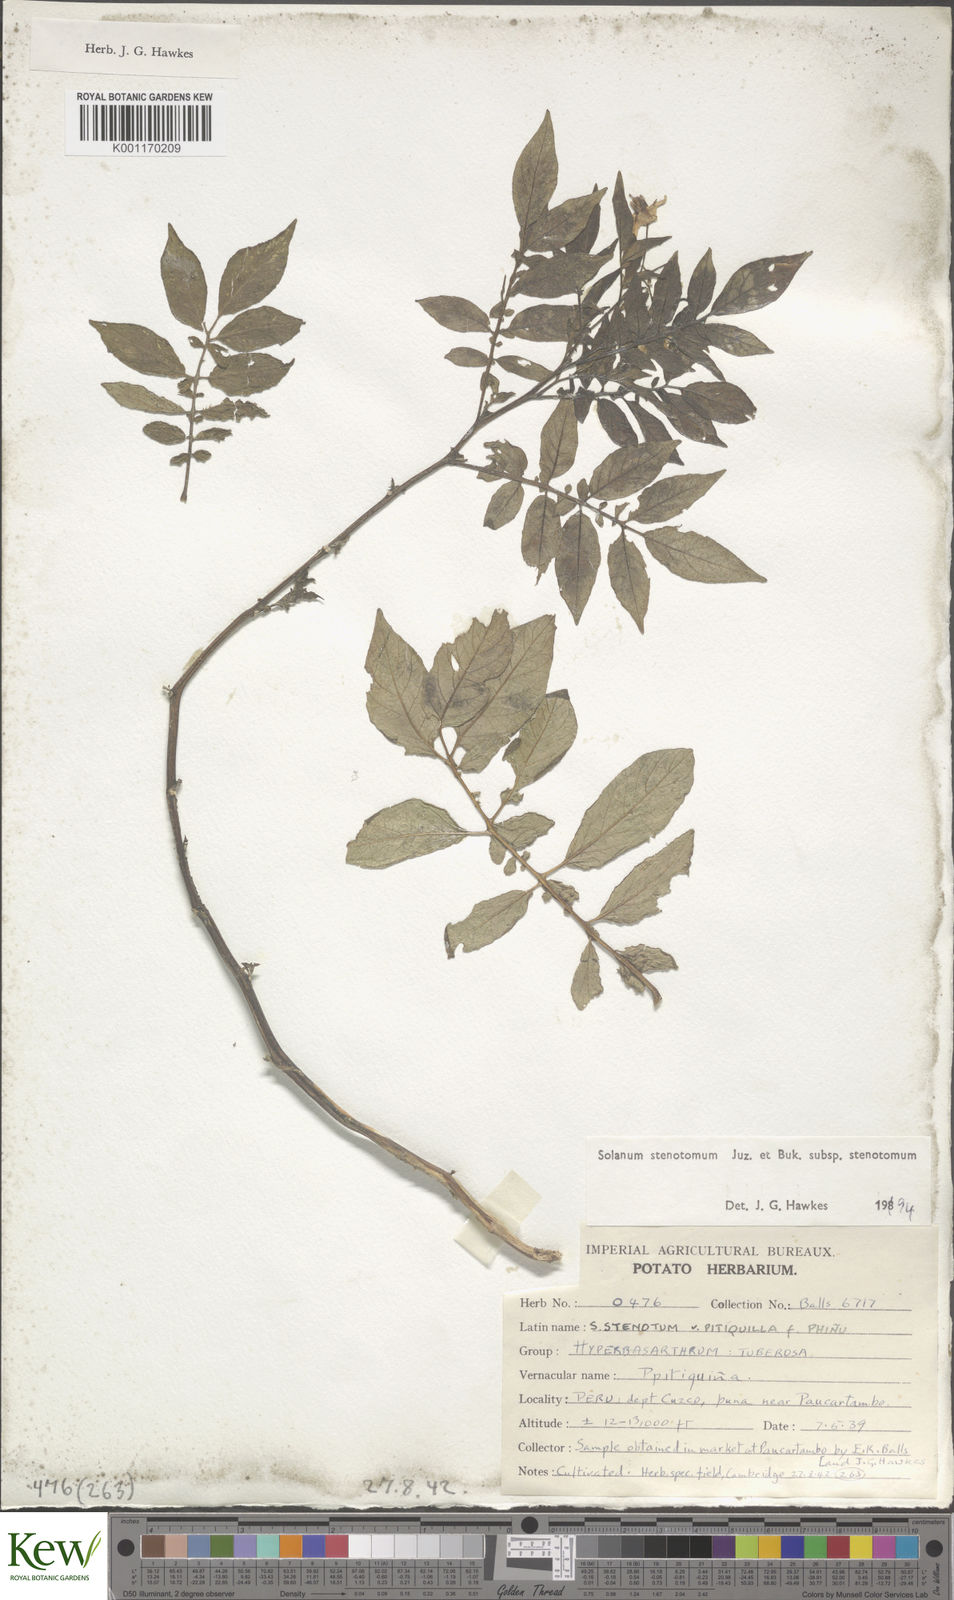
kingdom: Plantae
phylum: Tracheophyta
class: Magnoliopsida
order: Solanales
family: Solanaceae
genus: Solanum
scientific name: Solanum tuberosum
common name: Potato
